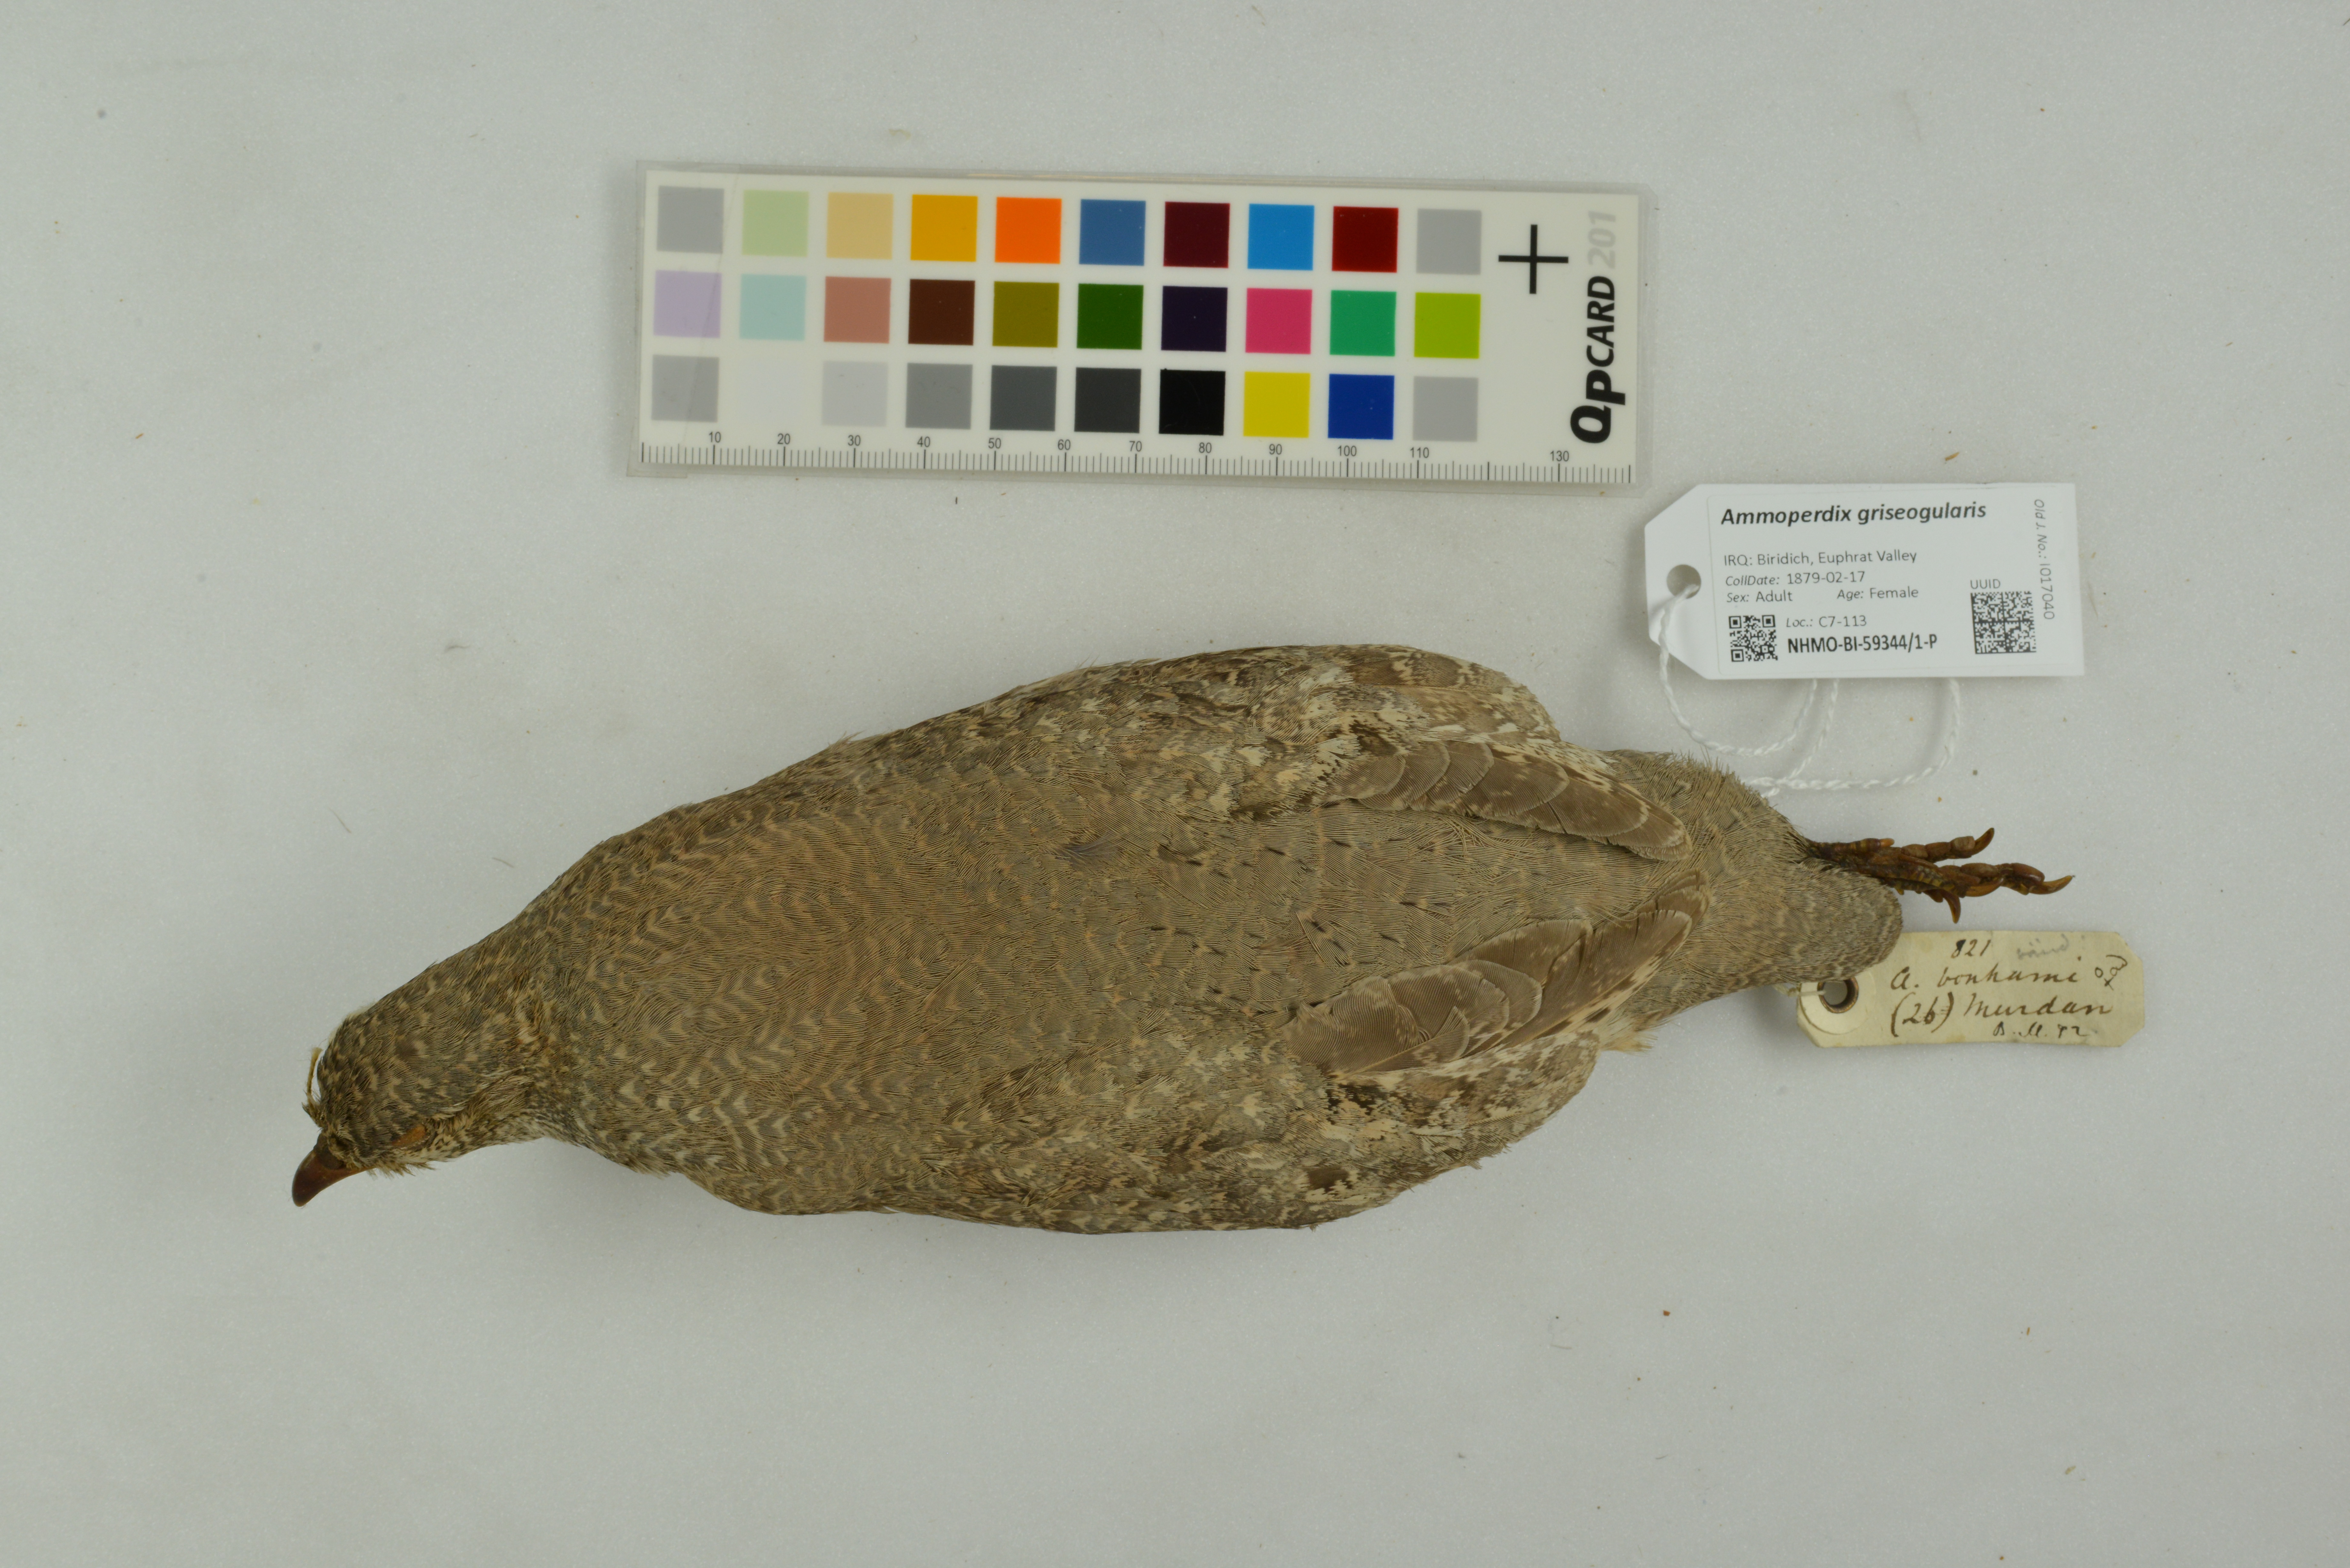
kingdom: Animalia
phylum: Chordata
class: Aves
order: Galliformes
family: Phasianidae
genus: Ammoperdix
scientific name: Ammoperdix griseogularis
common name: See-see partridge
